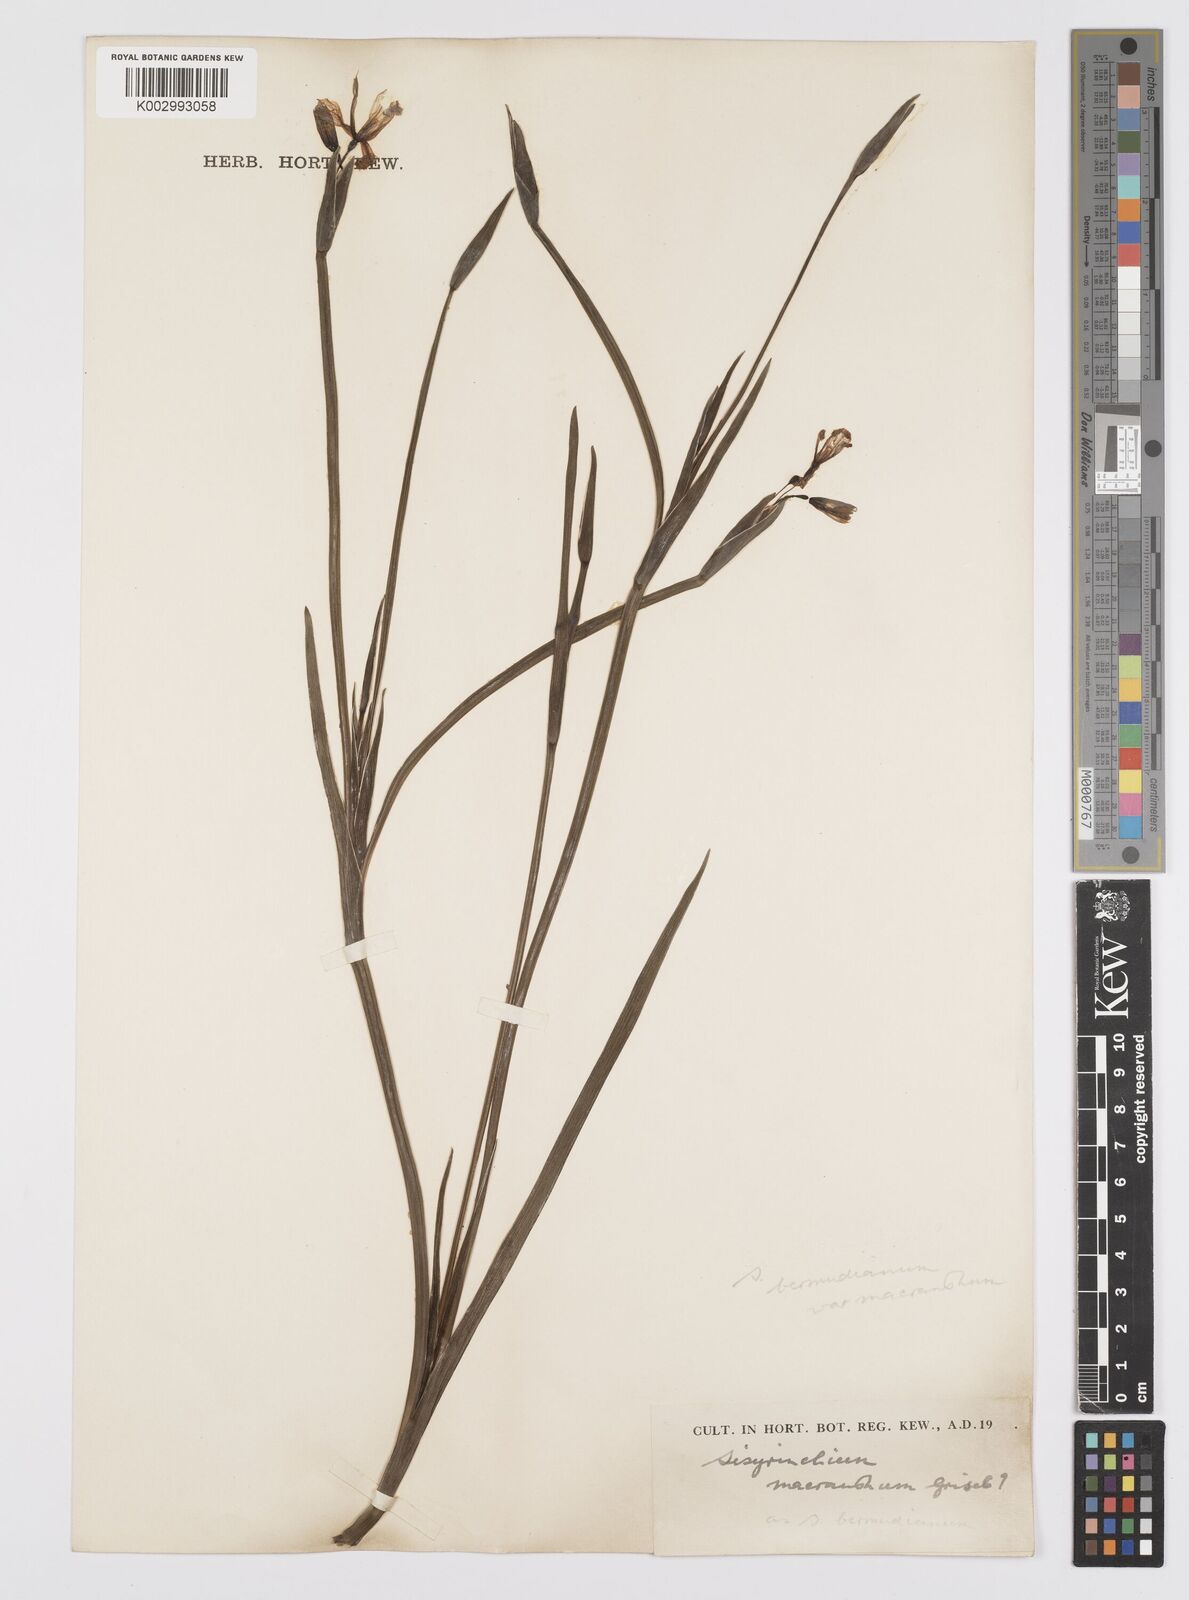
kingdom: Plantae
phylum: Tracheophyta
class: Liliopsida
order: Asparagales
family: Iridaceae
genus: Sisyrinchium
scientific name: Sisyrinchium bermudiana
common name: Blue-eyed-grass
